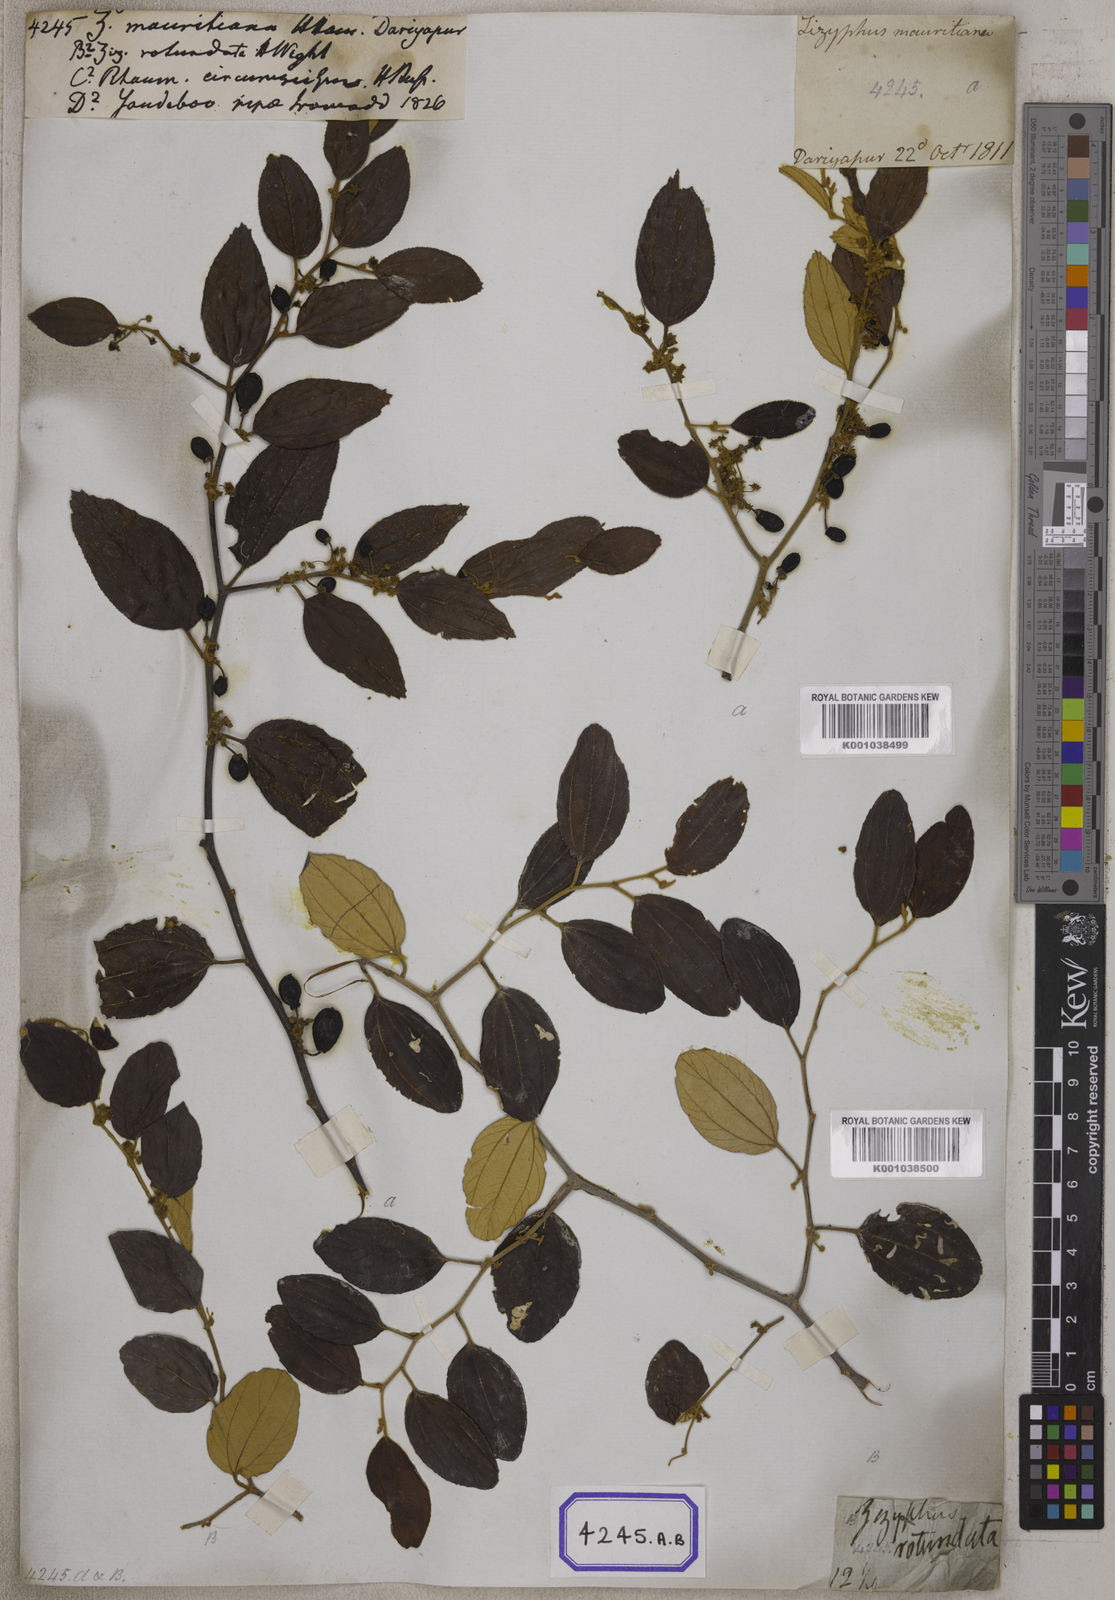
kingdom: Plantae
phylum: Tracheophyta
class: Magnoliopsida
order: Rosales
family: Rhamnaceae
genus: Ziziphus
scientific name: Ziziphus
